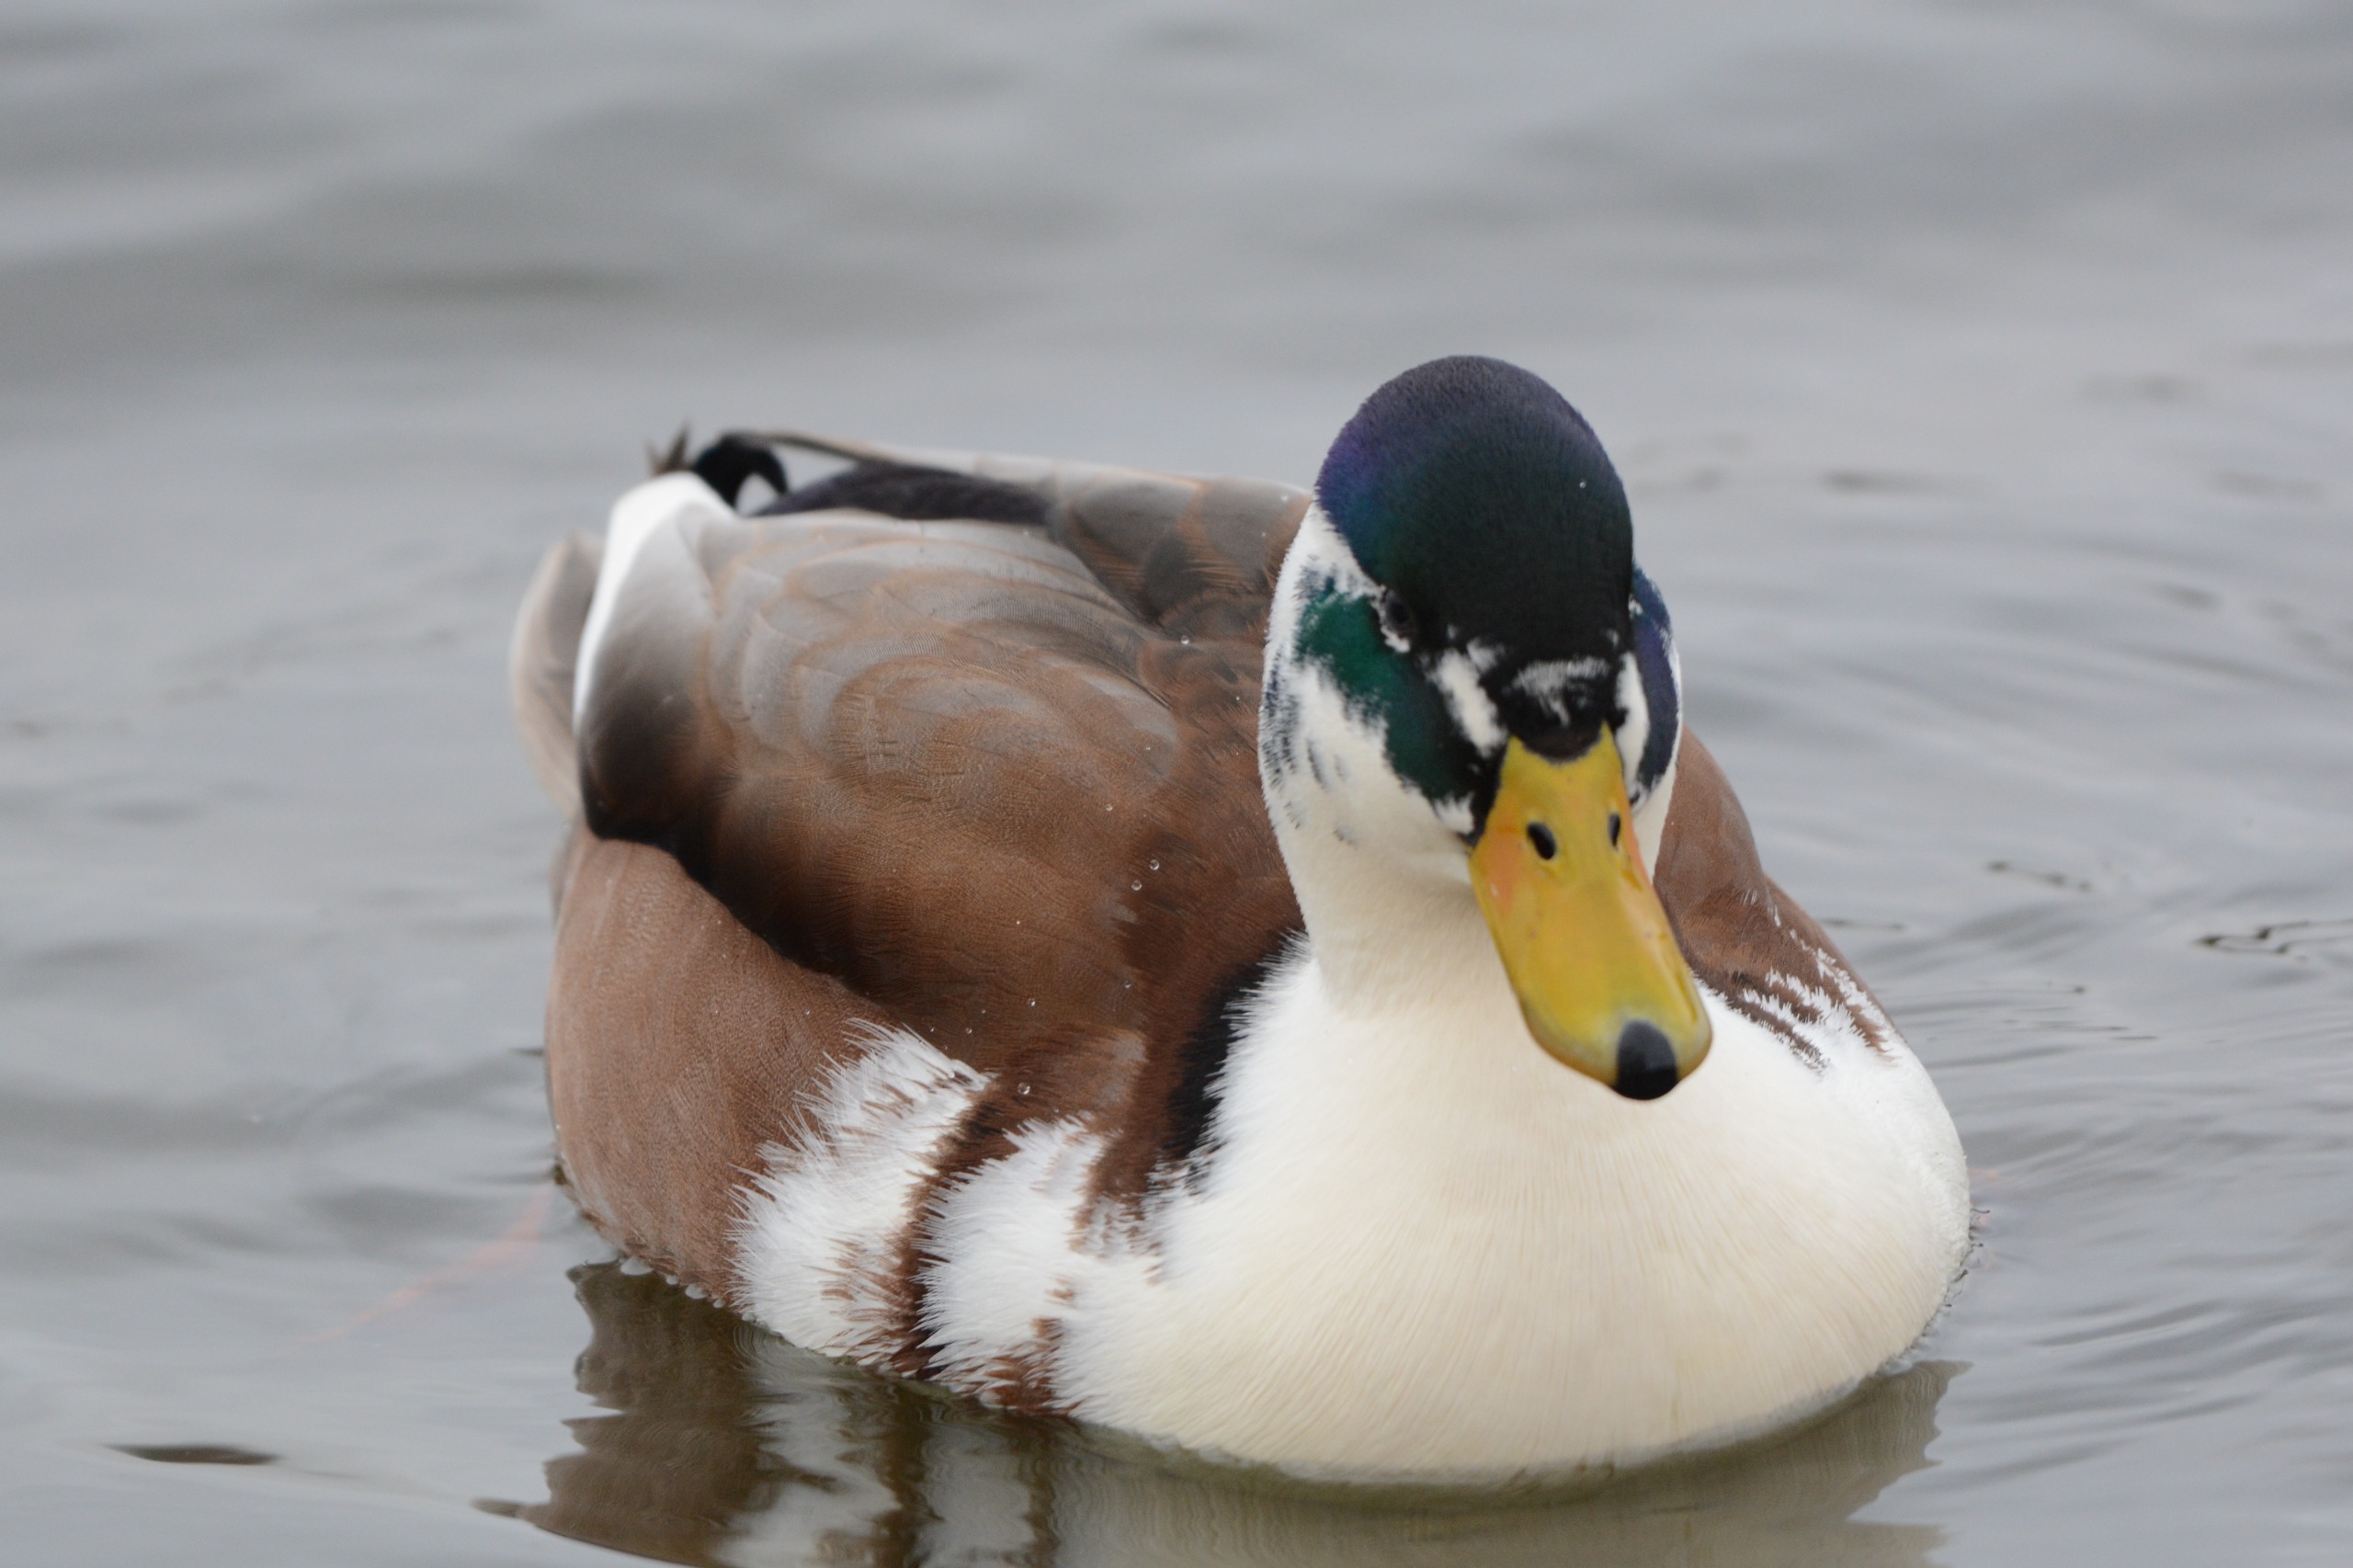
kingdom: Animalia
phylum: Chordata
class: Aves
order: Anseriformes
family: Anatidae
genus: Anas
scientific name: Anas platyrhynchos
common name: Gråand
